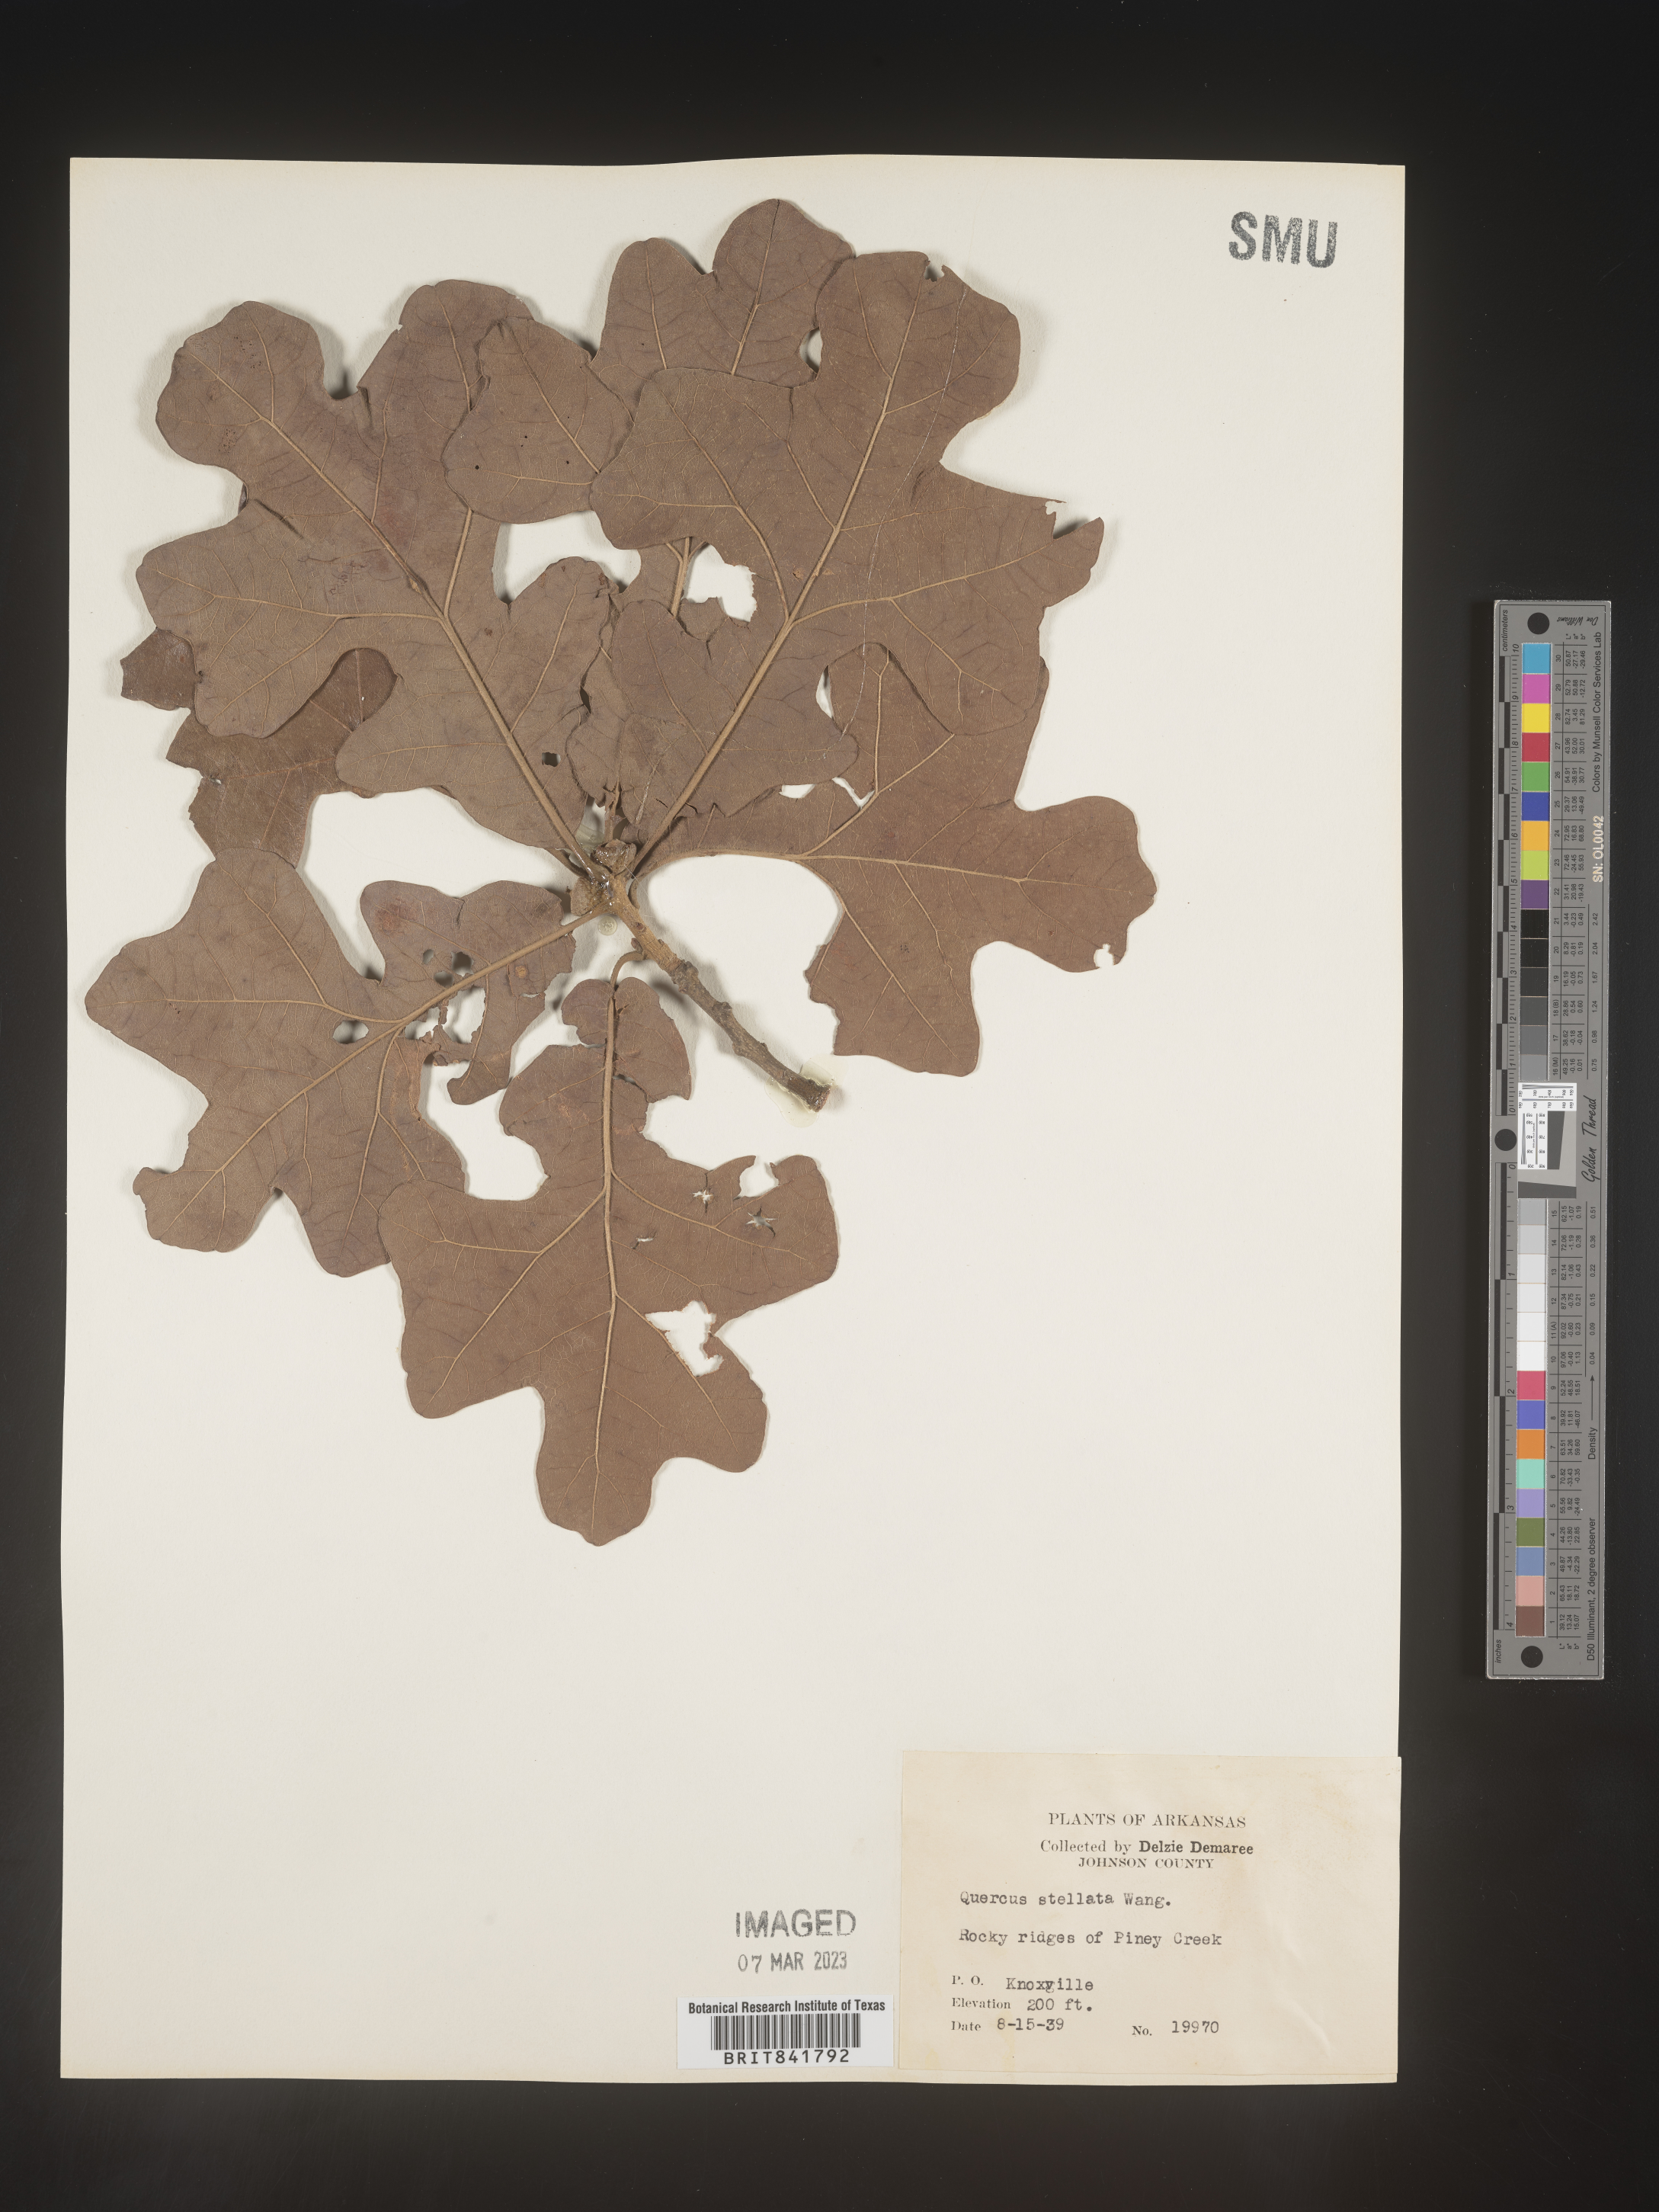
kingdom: Plantae
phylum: Tracheophyta
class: Magnoliopsida
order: Fagales
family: Fagaceae
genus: Quercus
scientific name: Quercus stellata
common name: Post oak
